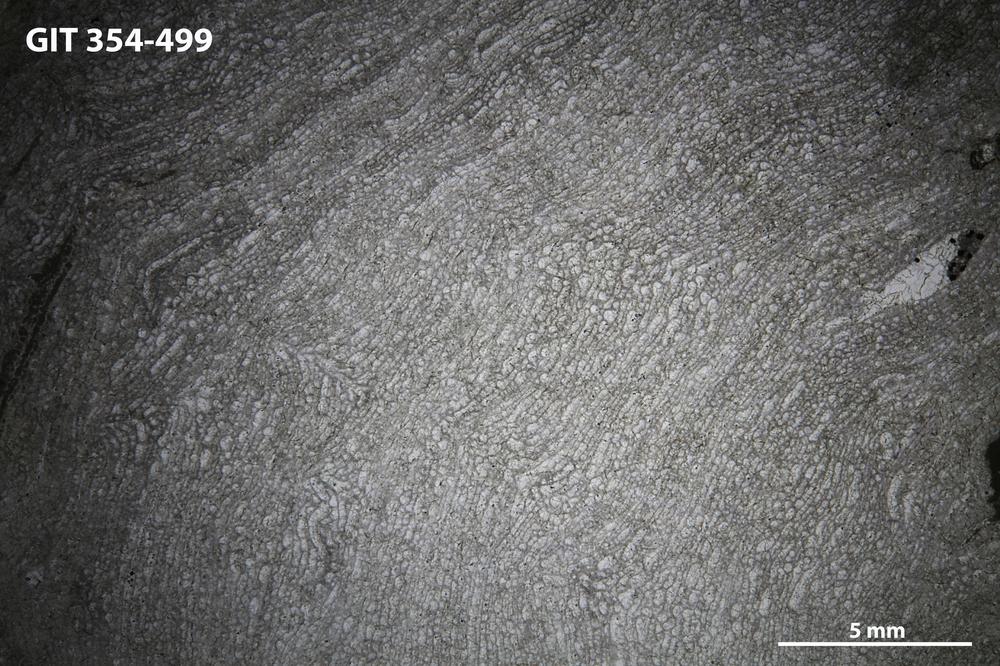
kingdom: Animalia
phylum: Porifera
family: Clathrodictyidae
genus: Clathrodictyon
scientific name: Clathrodictyon Stromatopora variolaris
